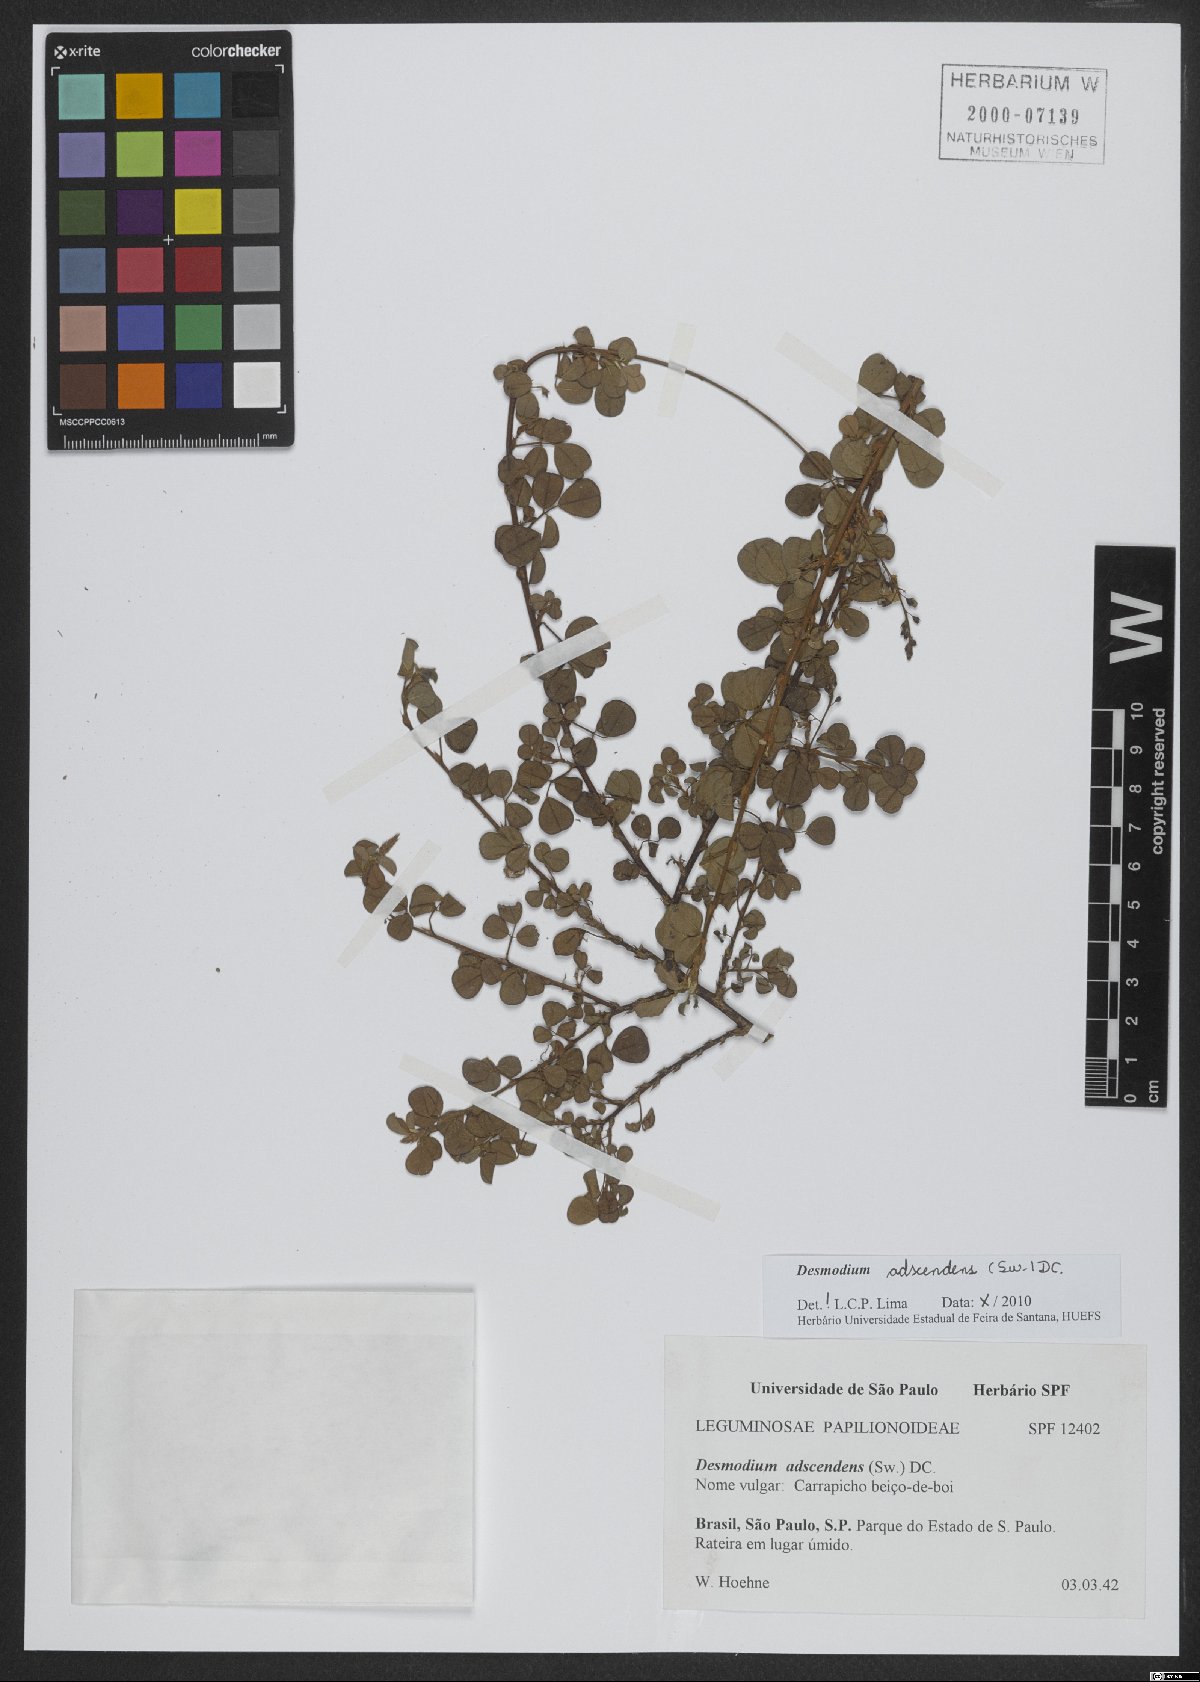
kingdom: Plantae
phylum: Tracheophyta
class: Magnoliopsida
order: Fabales
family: Fabaceae
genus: Grona
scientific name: Grona adscendens
